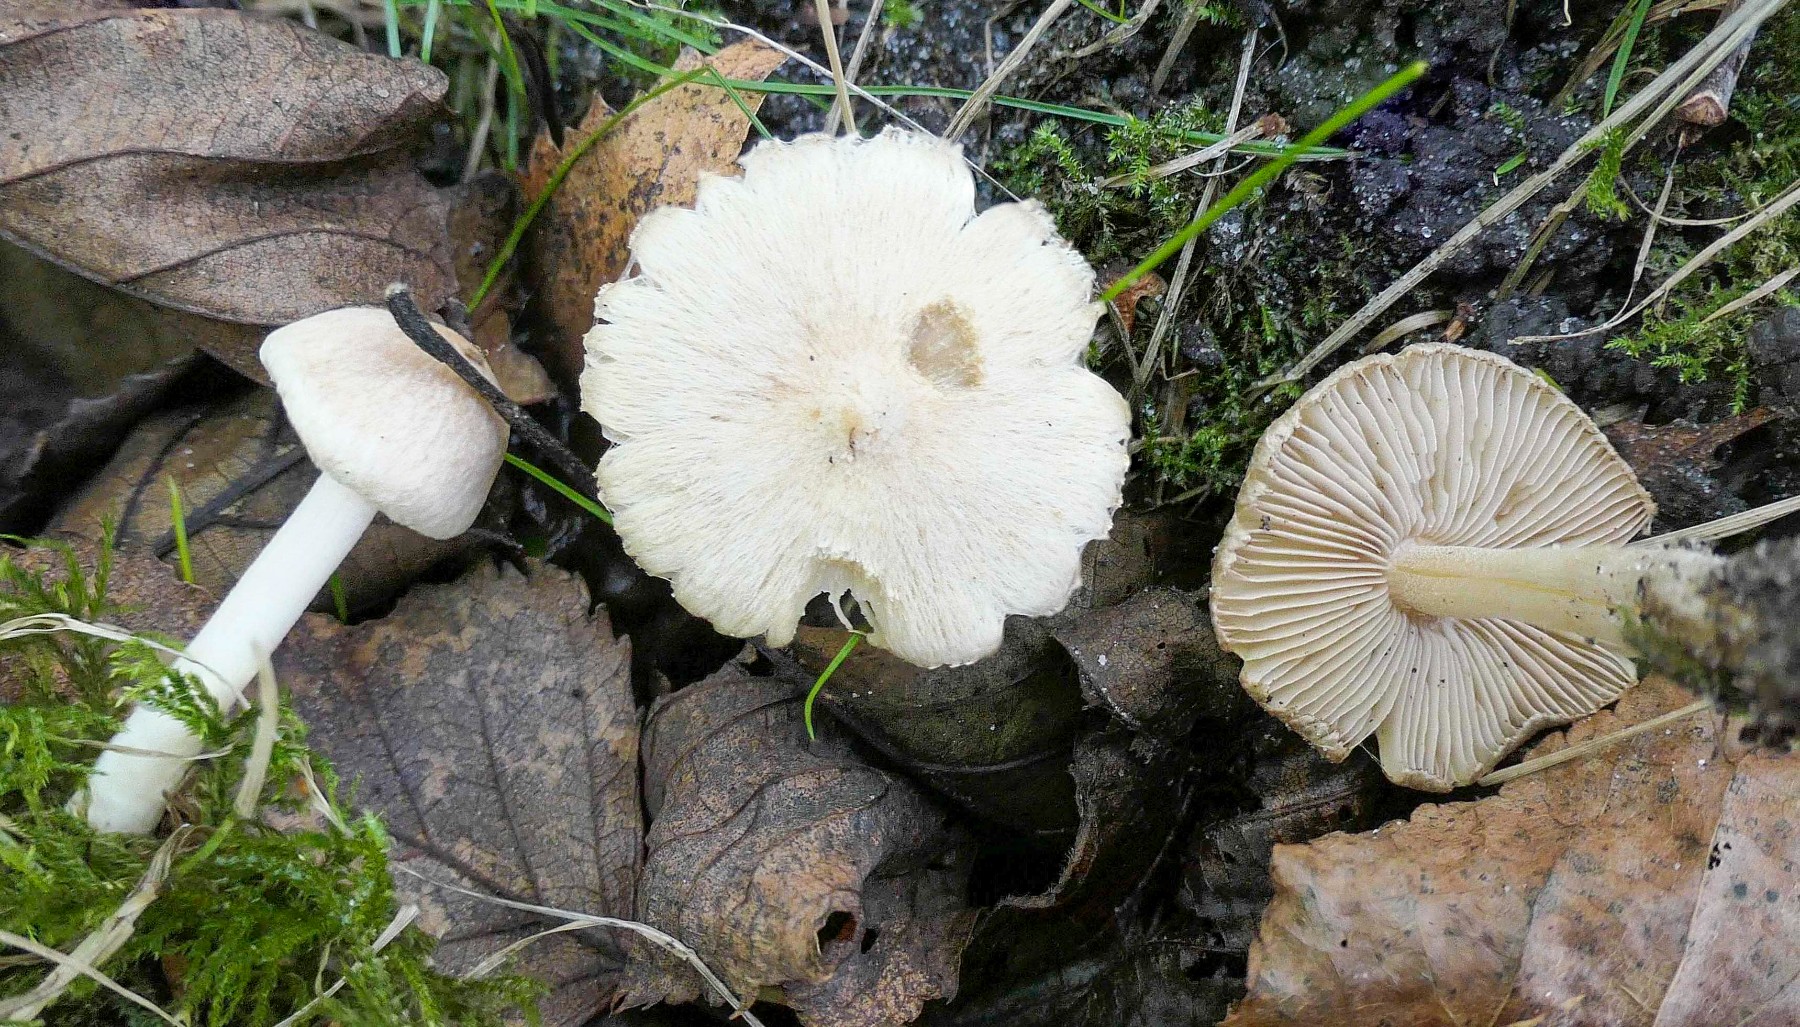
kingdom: Fungi
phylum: Basidiomycota
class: Agaricomycetes
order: Agaricales
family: Inocybaceae
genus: Inocybe
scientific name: Inocybe
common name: trævlhat
